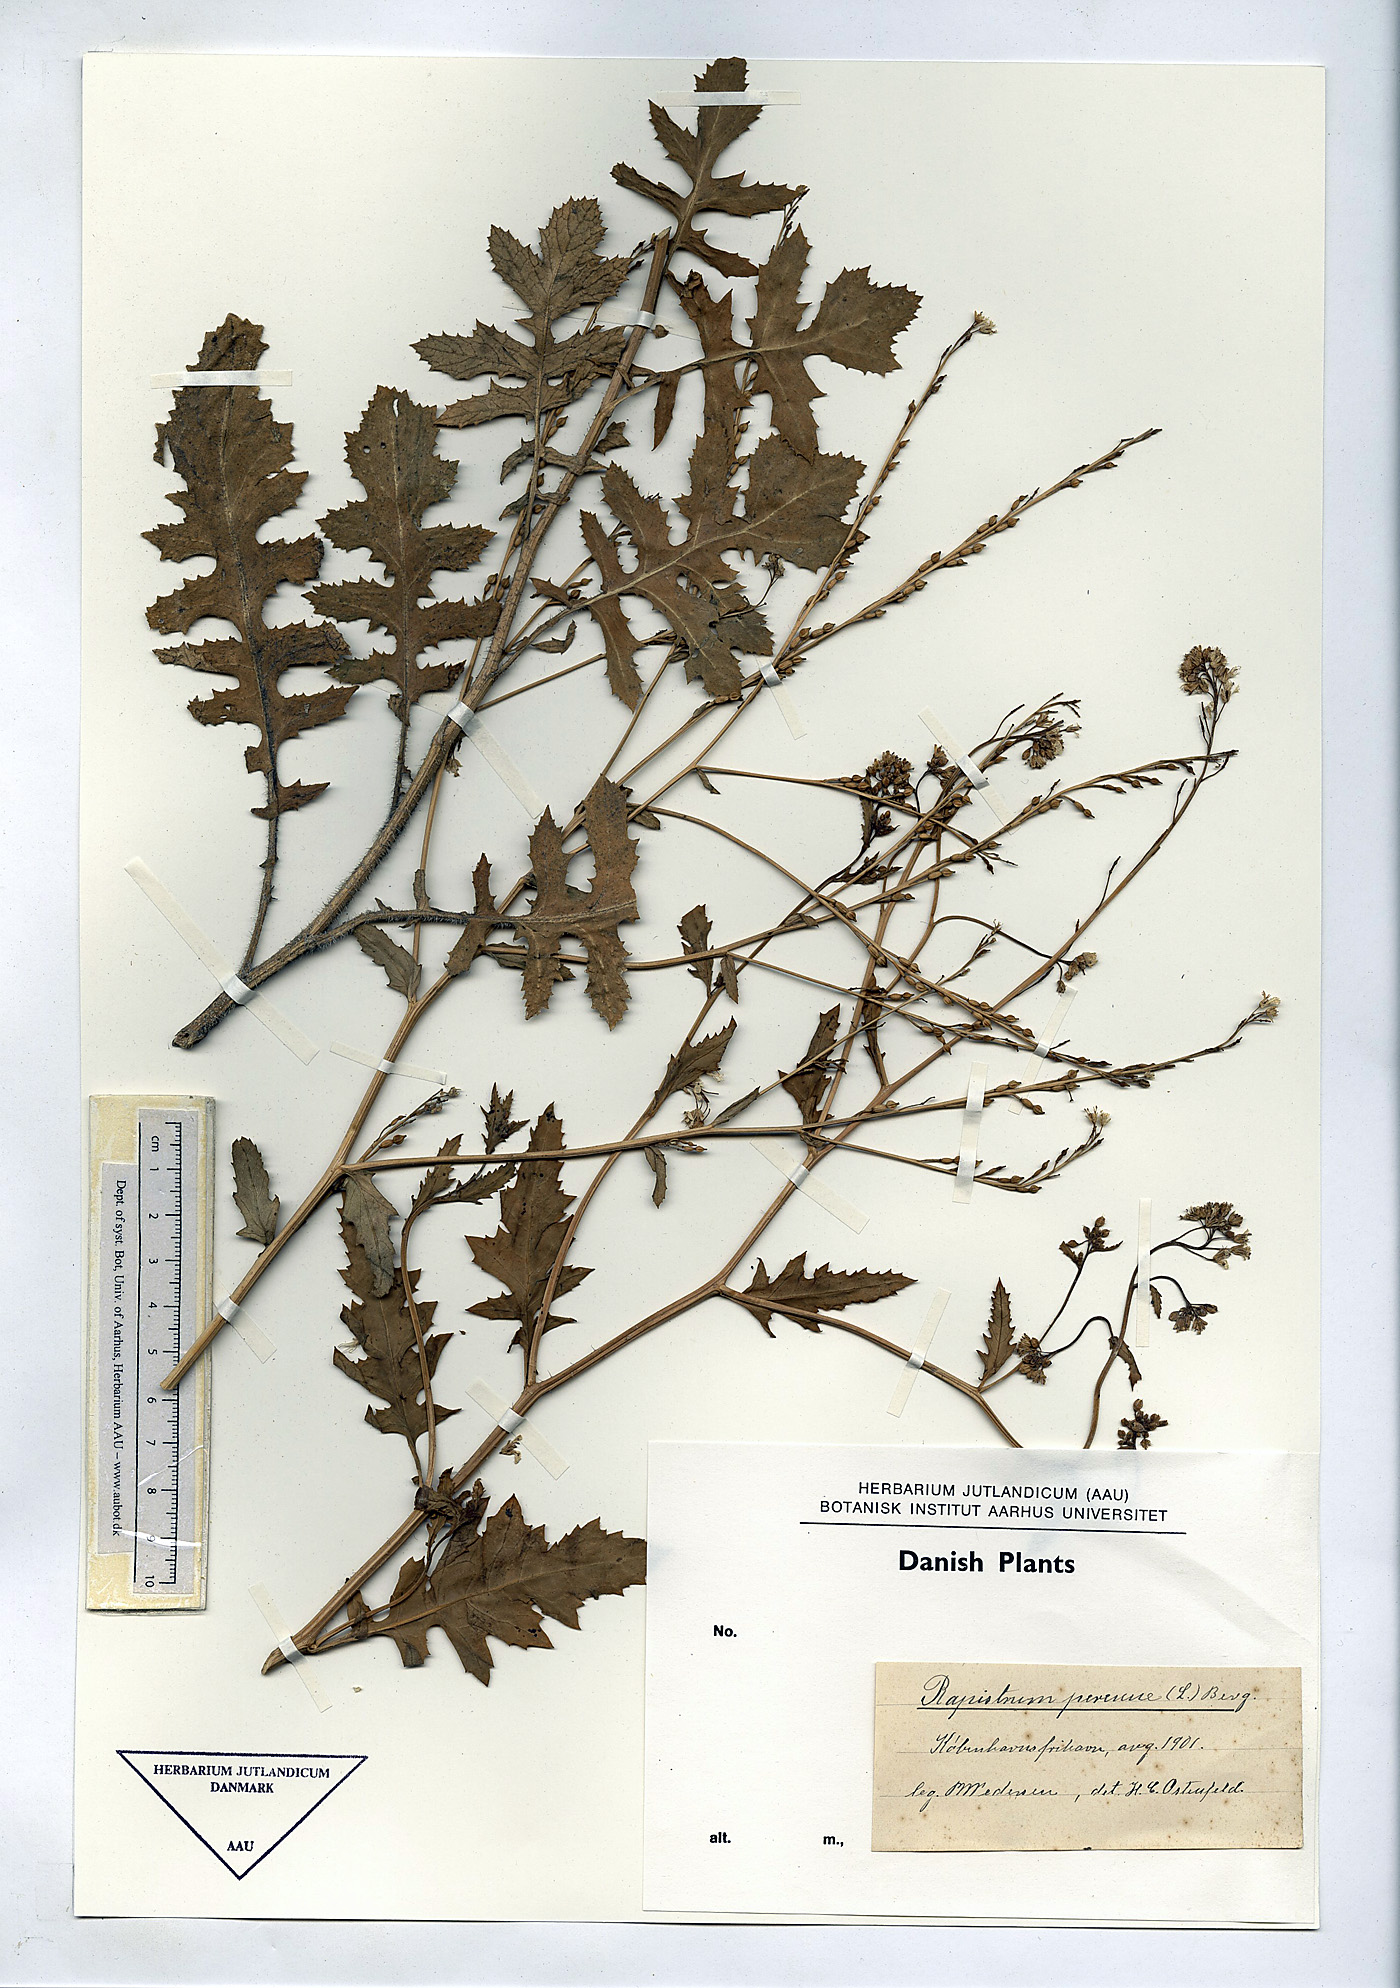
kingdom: Plantae
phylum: Tracheophyta
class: Magnoliopsida
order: Brassicales
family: Brassicaceae
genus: Rapistrum
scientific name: Rapistrum perenne
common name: Steppe cabbage
